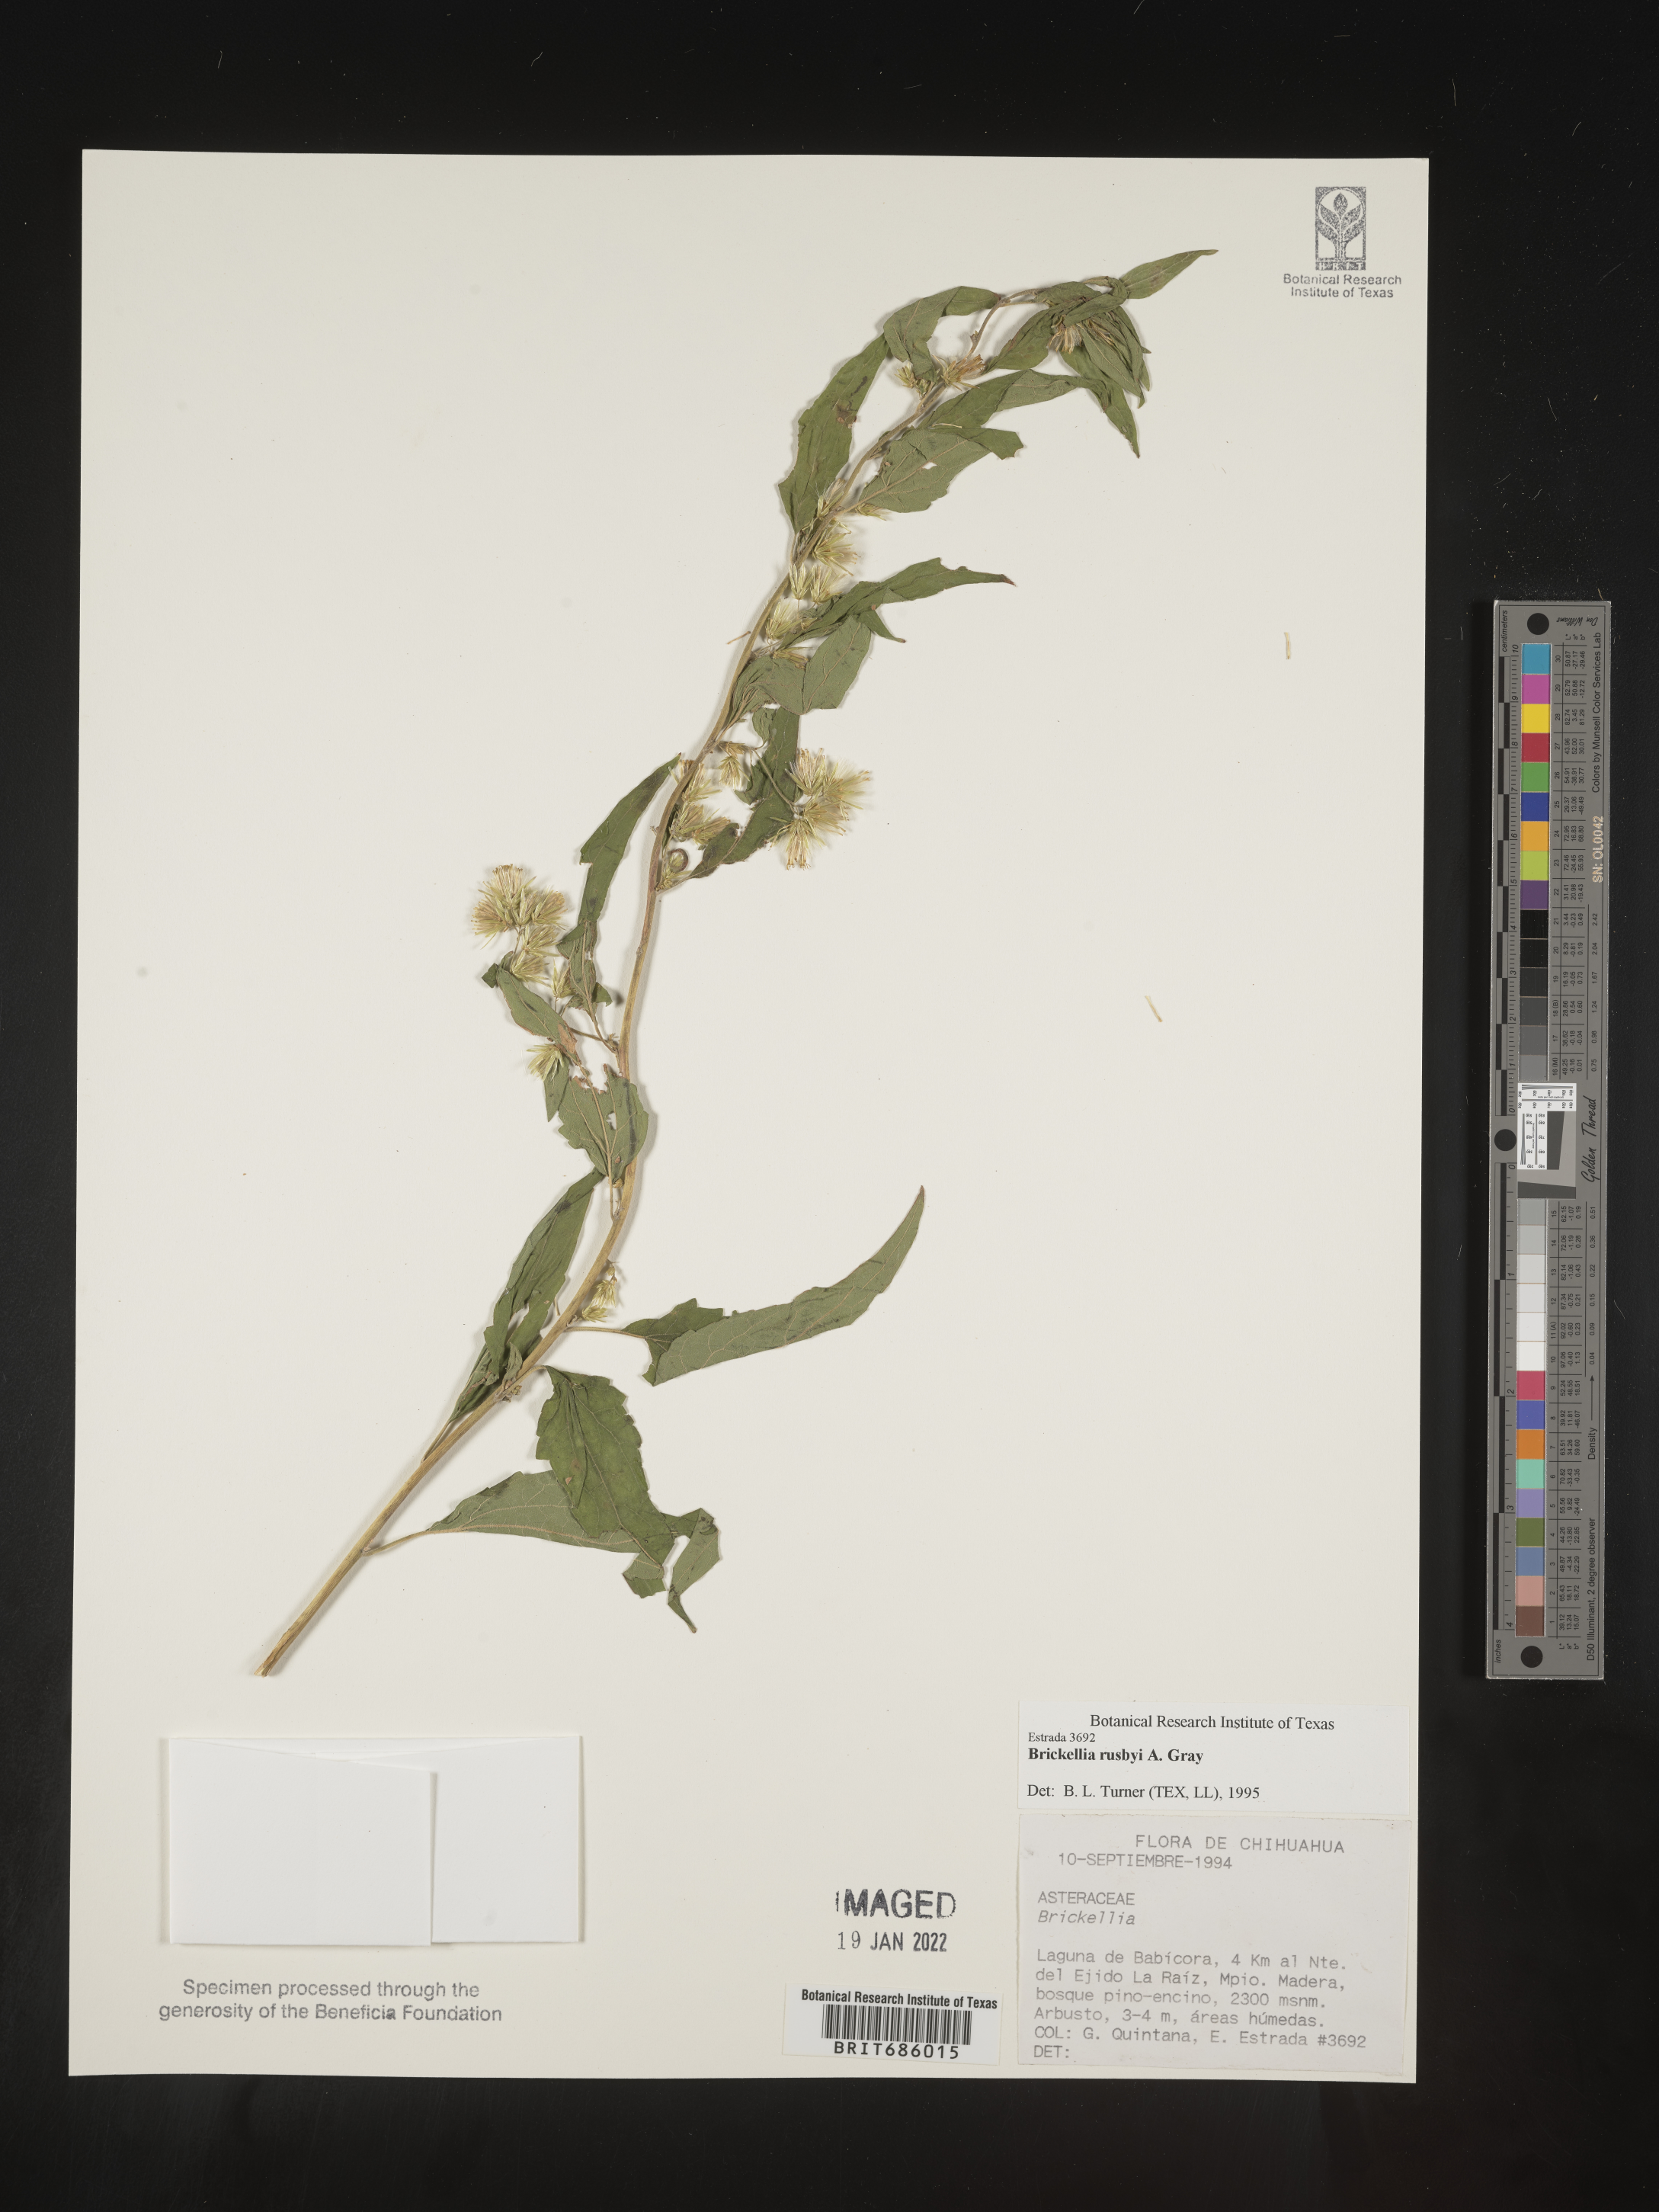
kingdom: Plantae
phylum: Tracheophyta
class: Magnoliopsida
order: Asterales
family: Asteraceae
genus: Brickellia
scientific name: Brickellia
